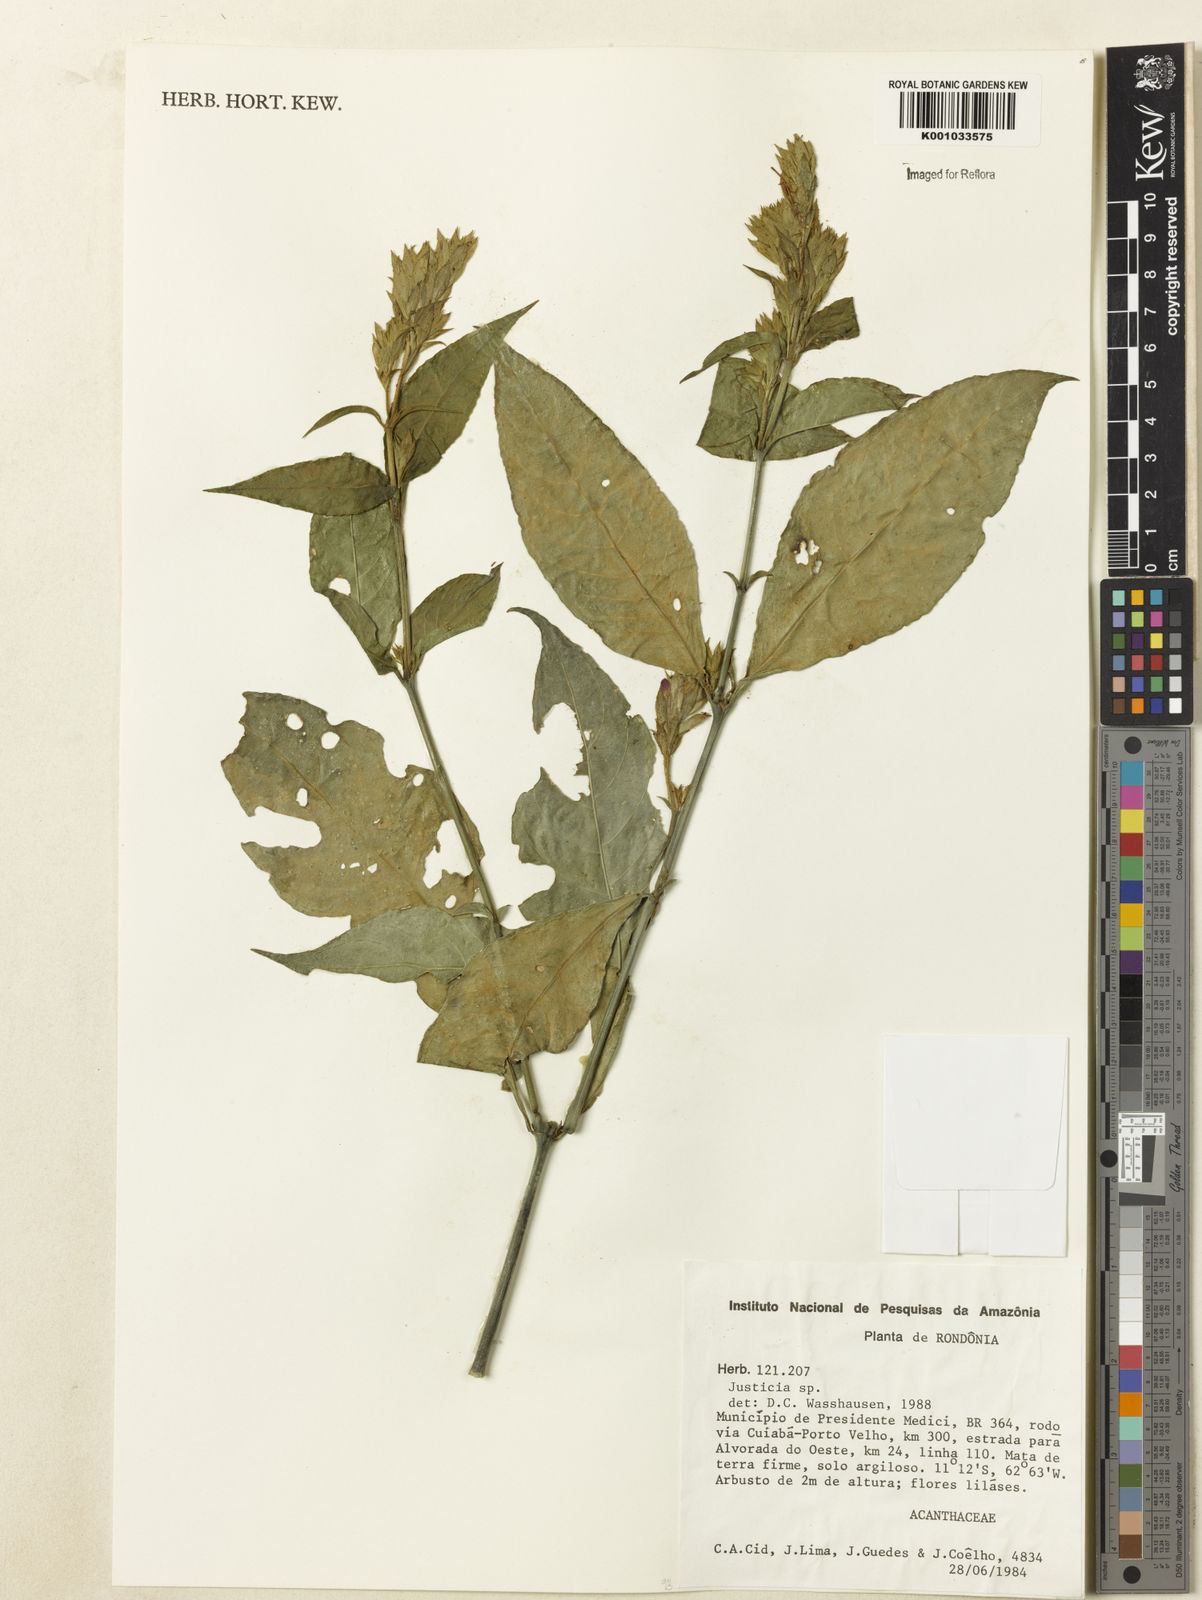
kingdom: Plantae
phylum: Tracheophyta
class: Magnoliopsida
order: Lamiales
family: Acanthaceae
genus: Justicia
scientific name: Justicia
